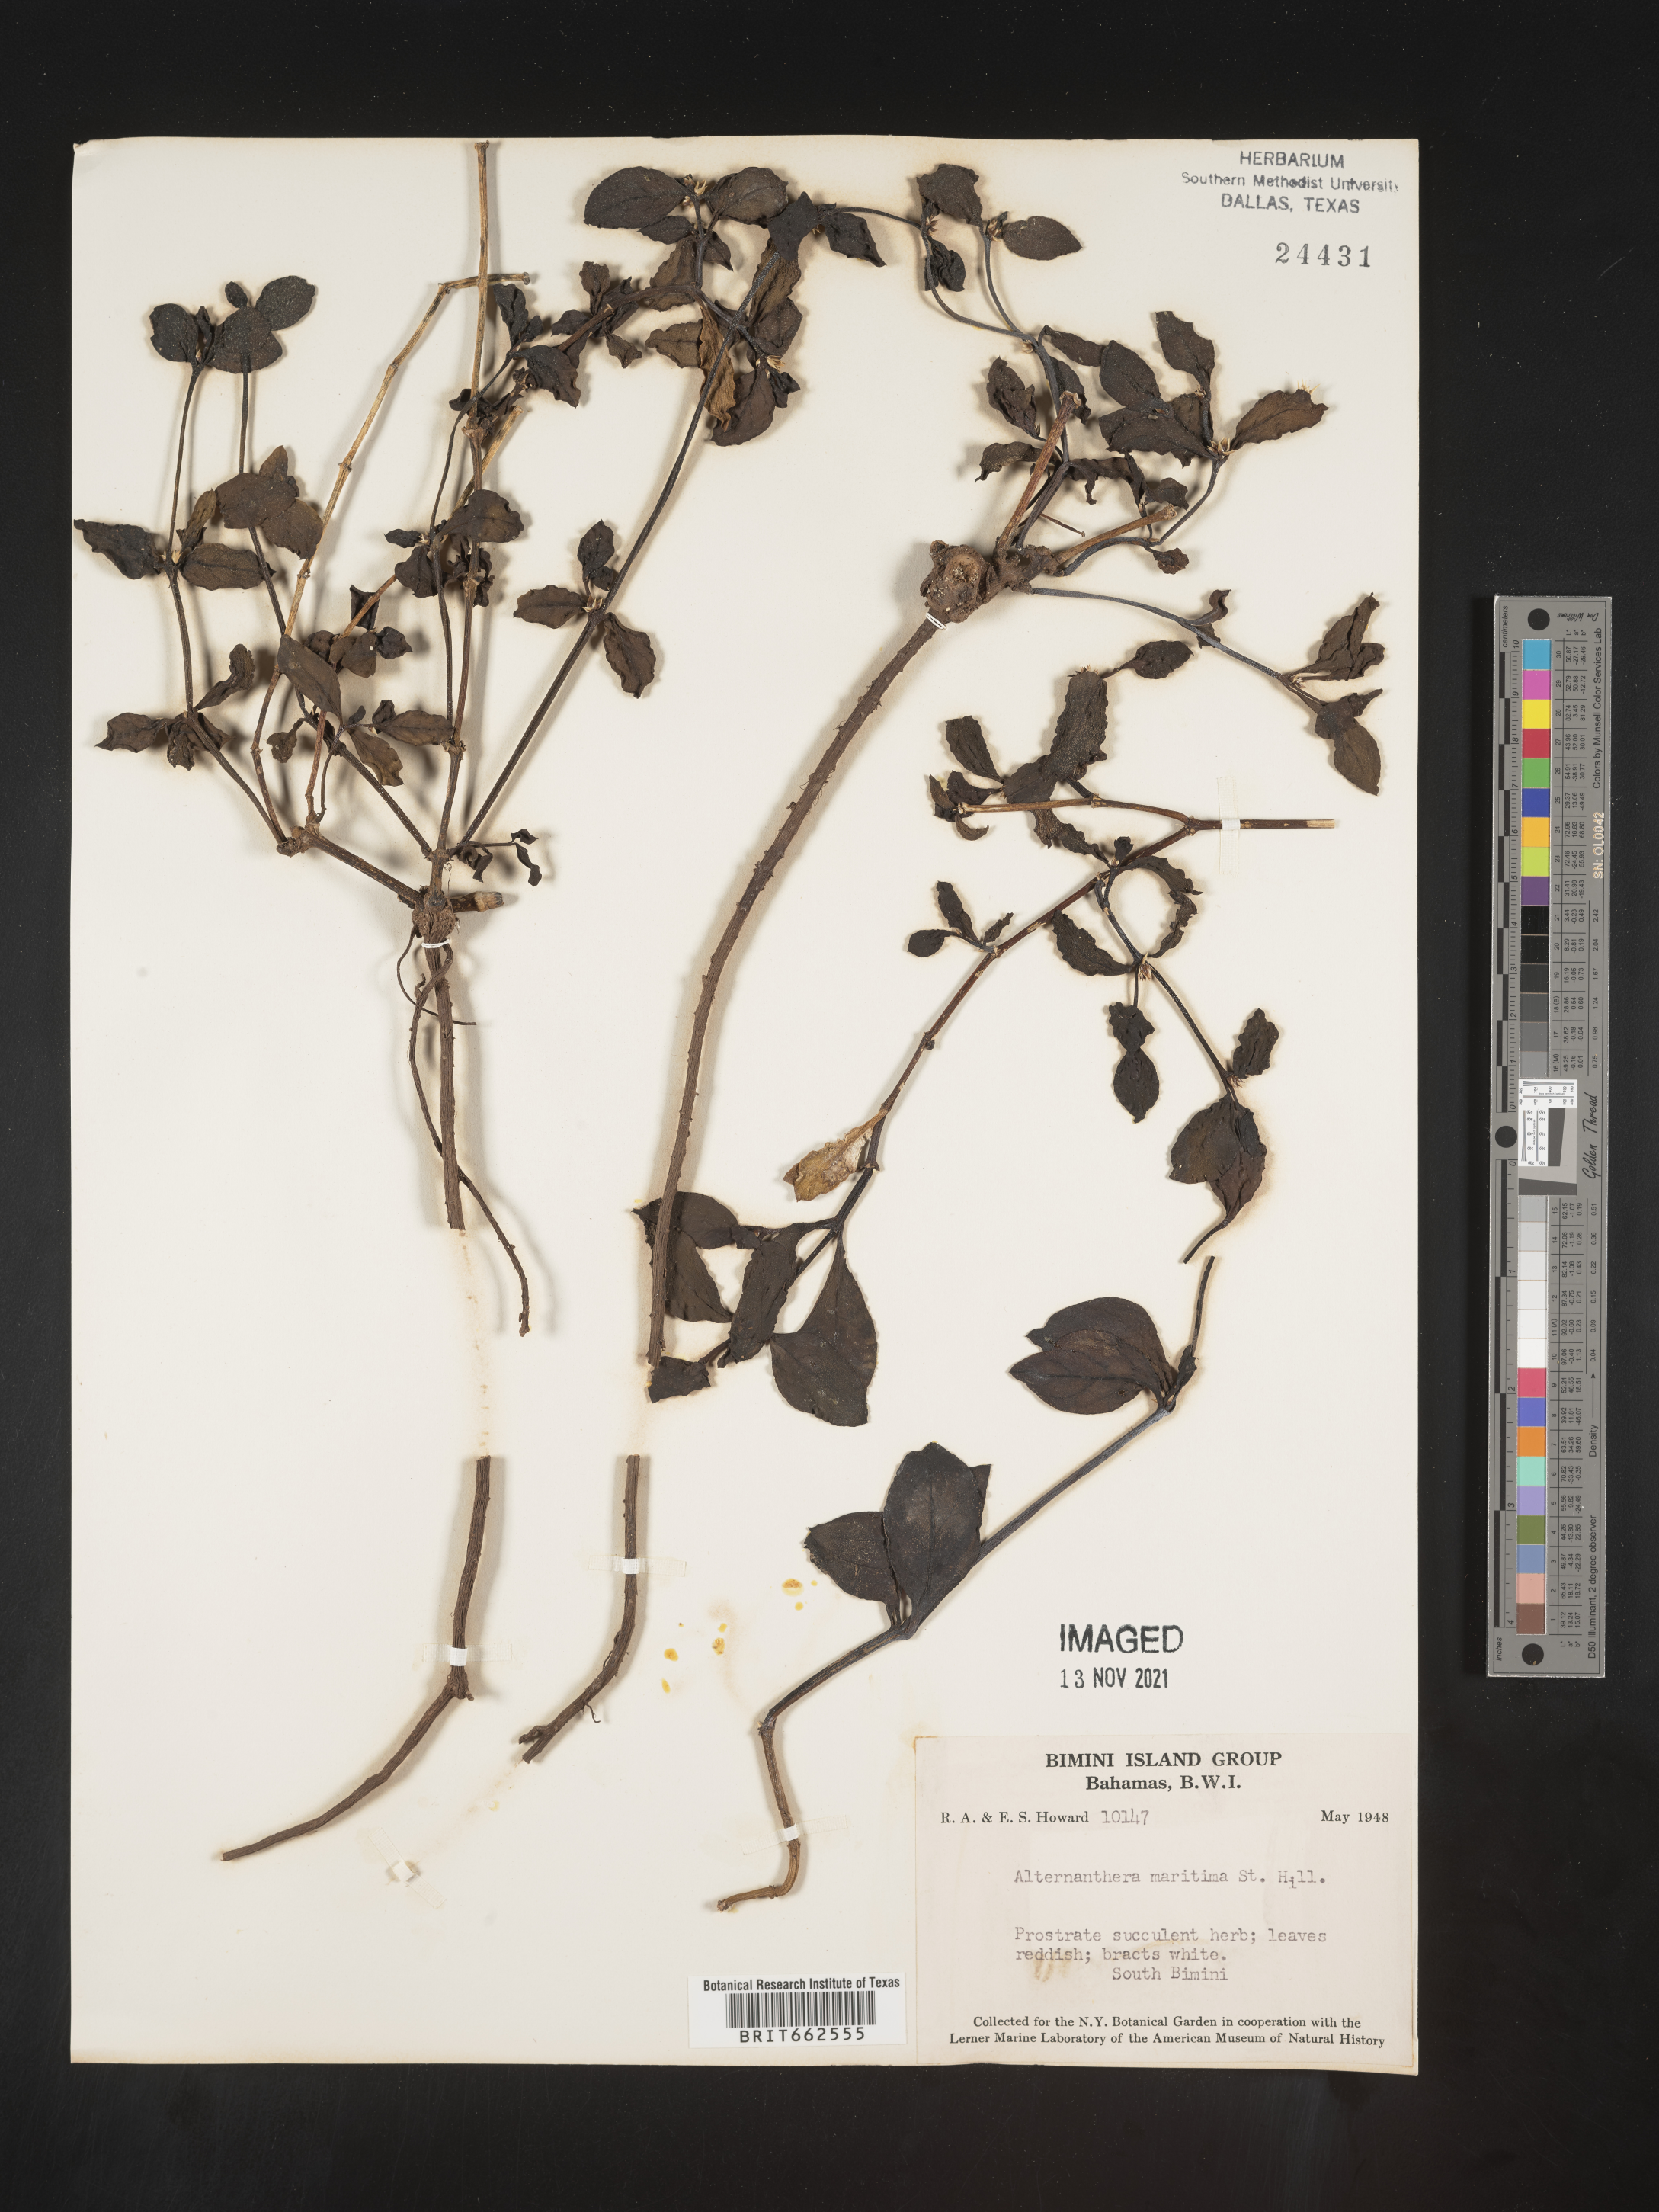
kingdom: Plantae
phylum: Tracheophyta
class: Magnoliopsida
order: Caryophyllales
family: Amaranthaceae
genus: Alternanthera
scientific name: Alternanthera
